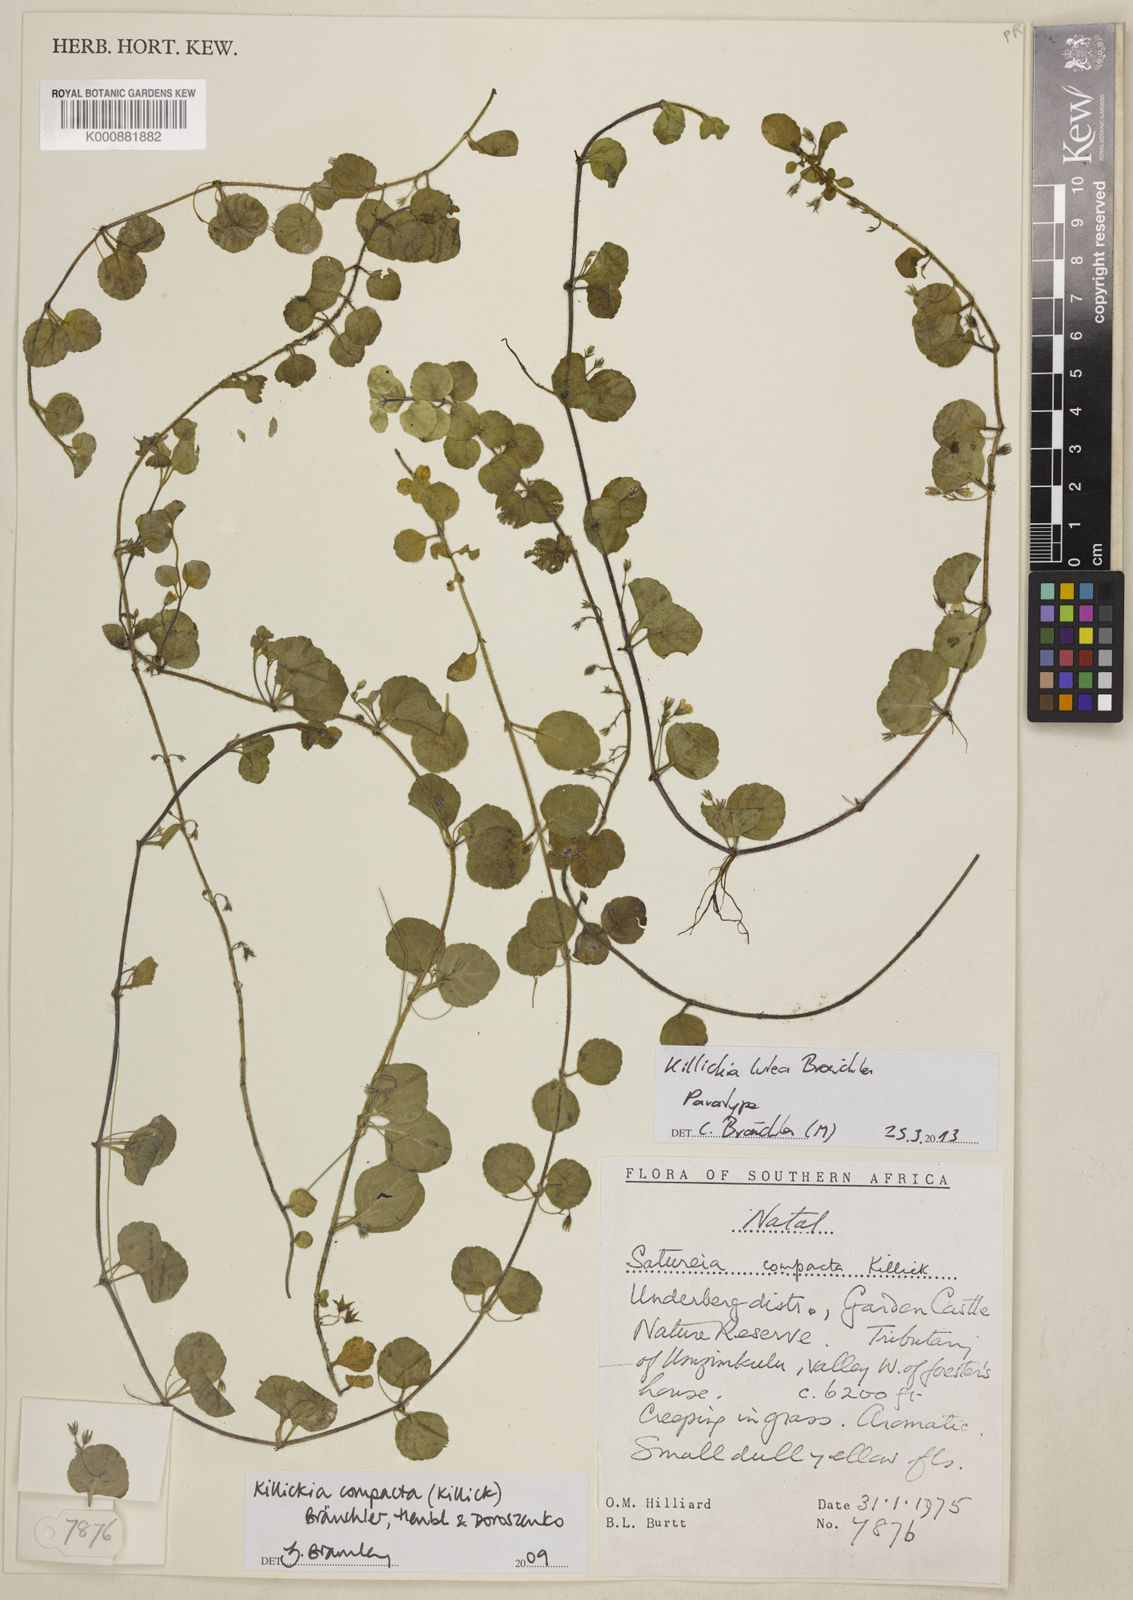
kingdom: Plantae
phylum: Tracheophyta
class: Magnoliopsida
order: Lamiales
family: Lamiaceae
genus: Killickia
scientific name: Killickia
